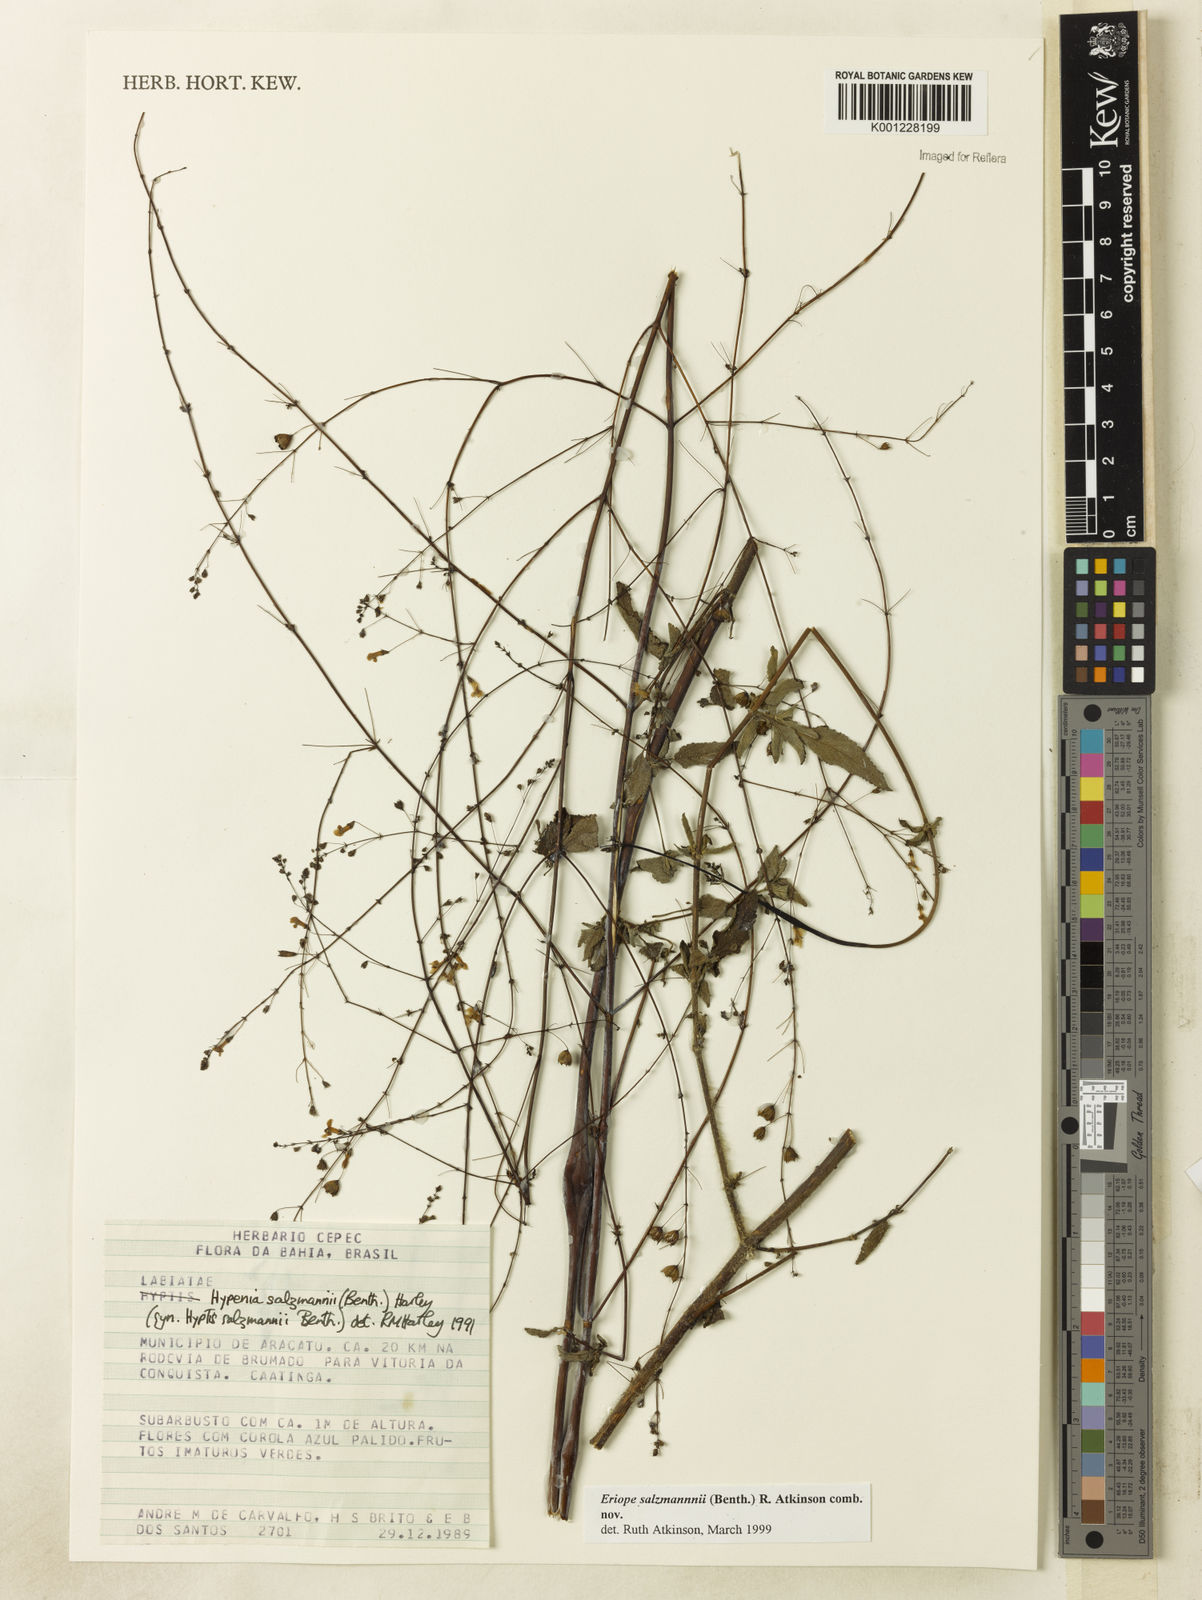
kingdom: Plantae
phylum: Tracheophyta
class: Magnoliopsida
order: Lamiales
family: Lamiaceae
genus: Hypenia
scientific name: Hypenia salzmannii
